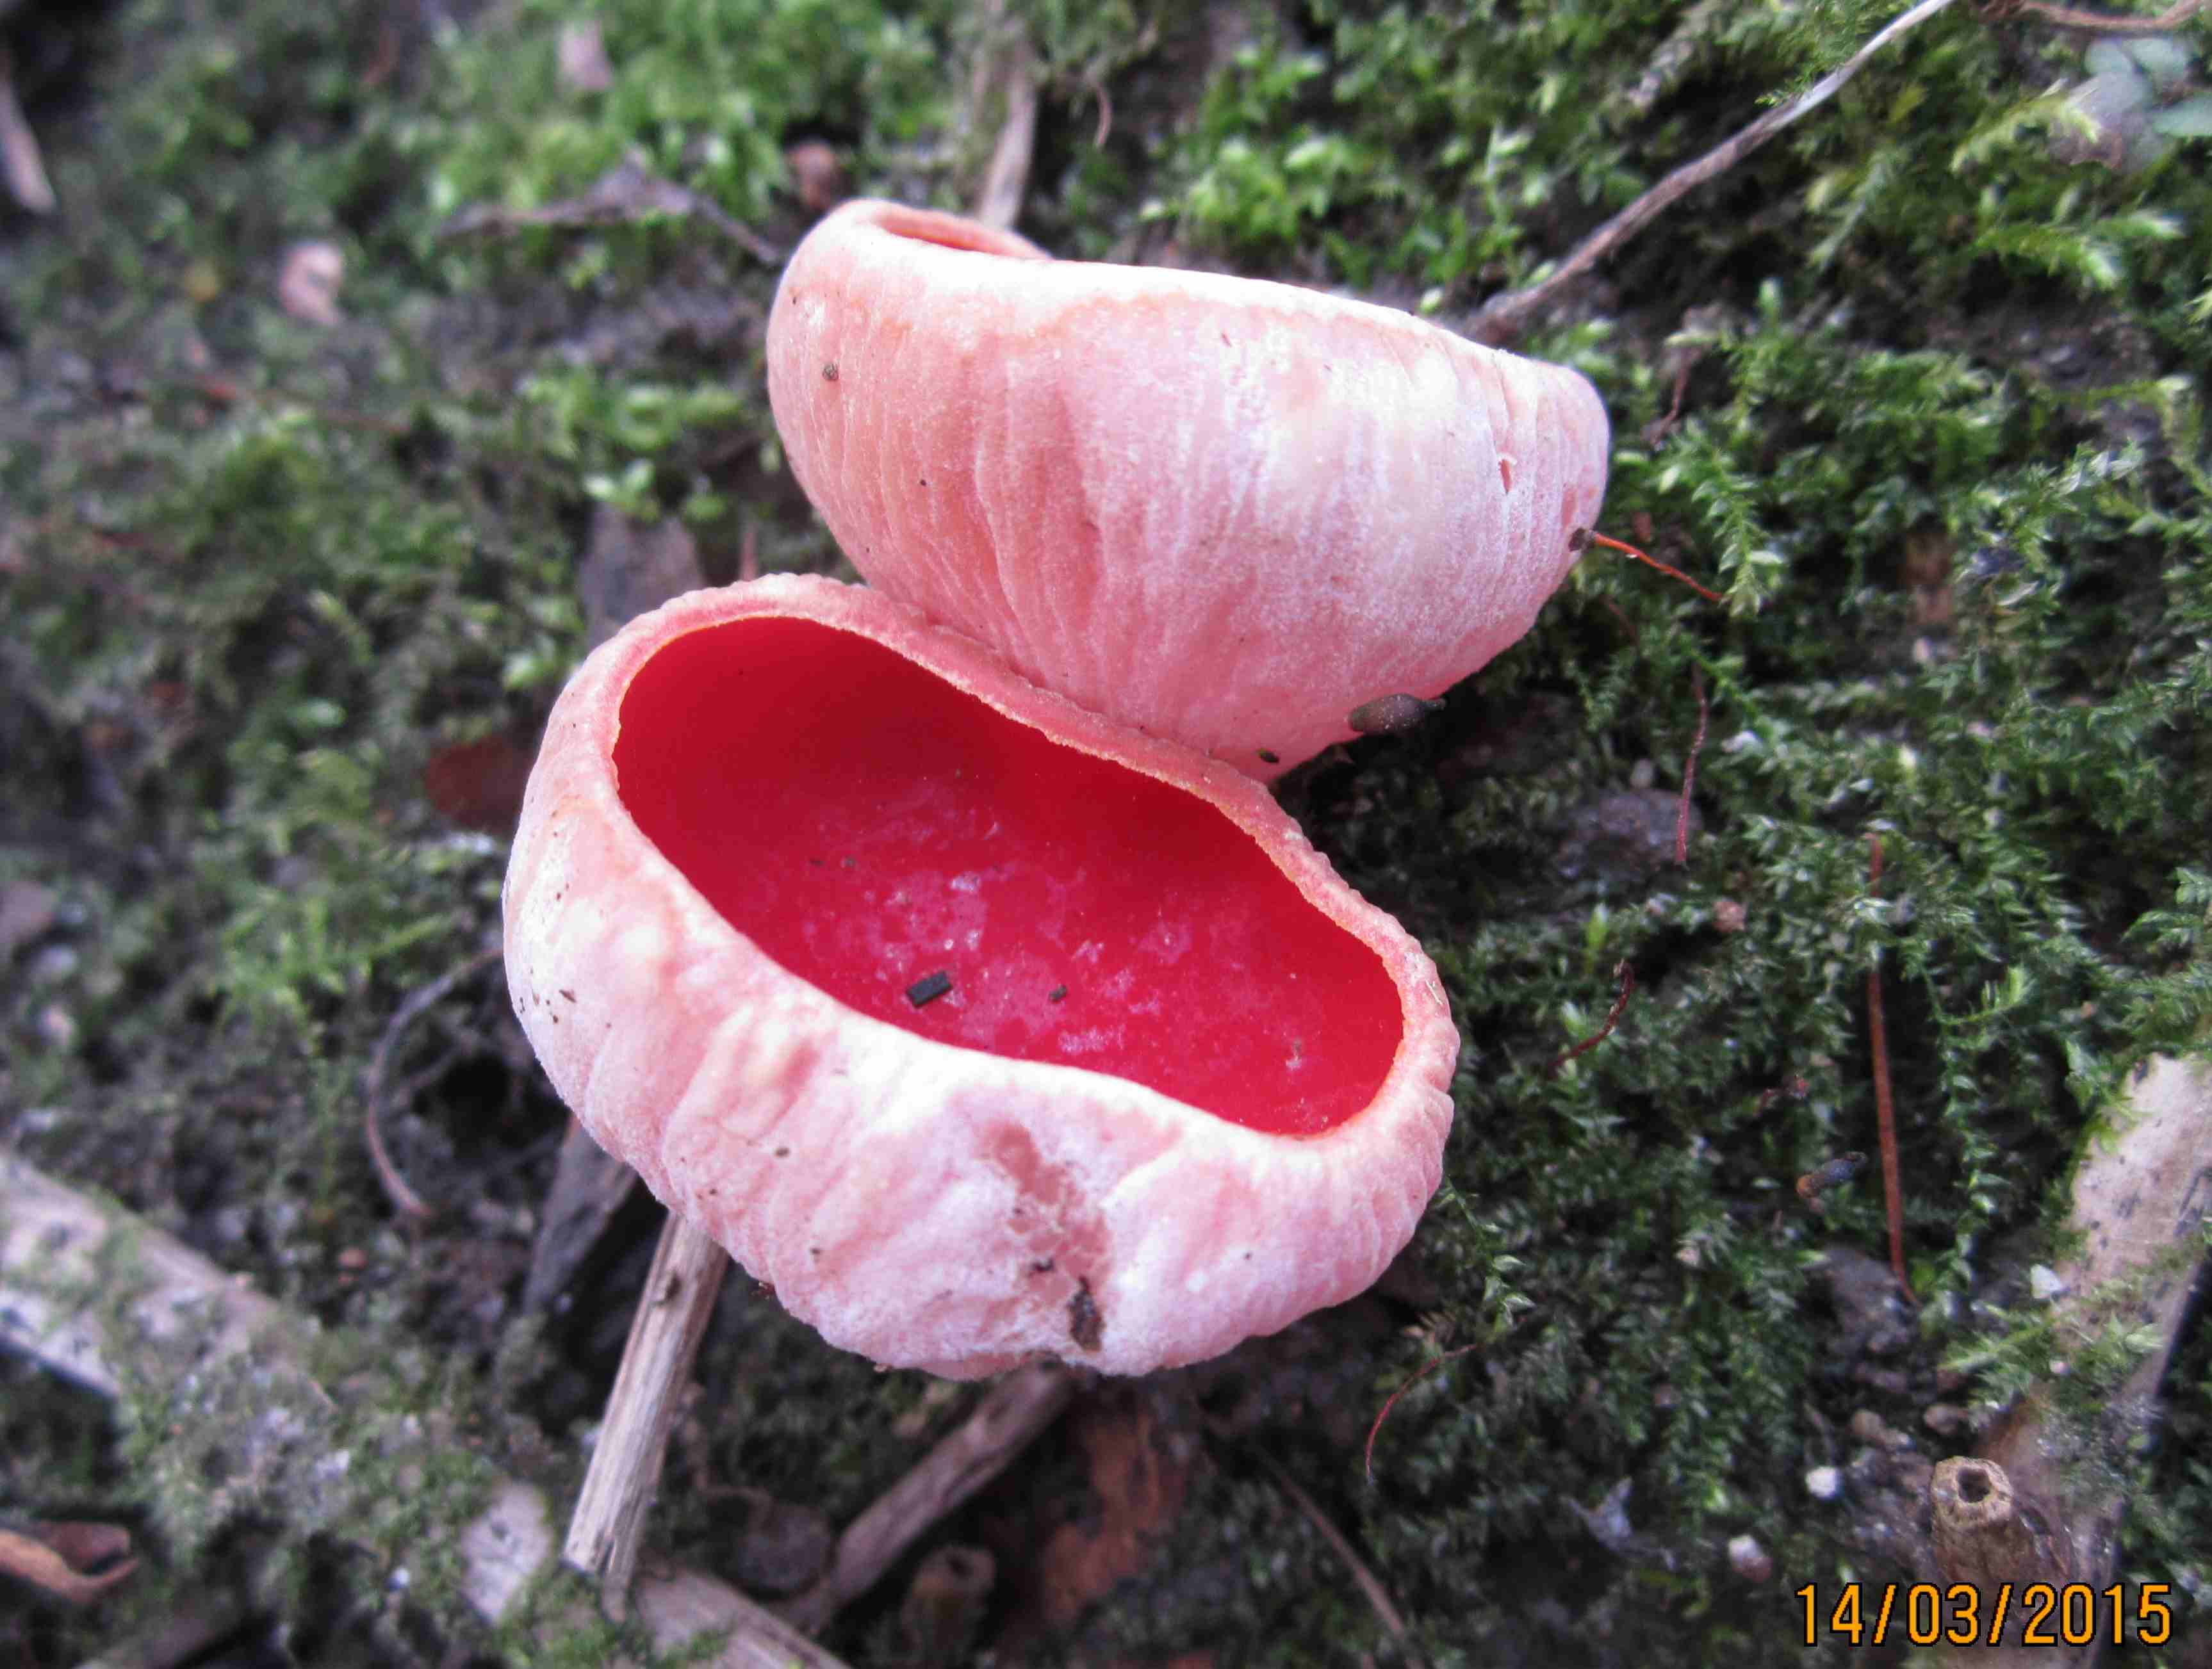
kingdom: Fungi
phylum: Ascomycota
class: Pezizomycetes
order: Pezizales
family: Sarcoscyphaceae
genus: Sarcoscypha
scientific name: Sarcoscypha austriaca
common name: krølhåret pragtbæger
